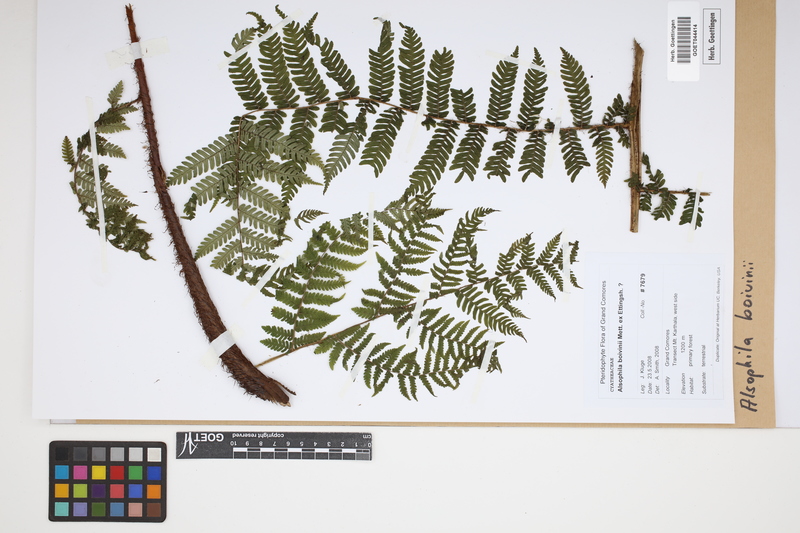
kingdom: Plantae
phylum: Tracheophyta
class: Polypodiopsida
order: Cyatheales
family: Cyatheaceae
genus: Gymnosphaera
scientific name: Gymnosphaera boivinii
